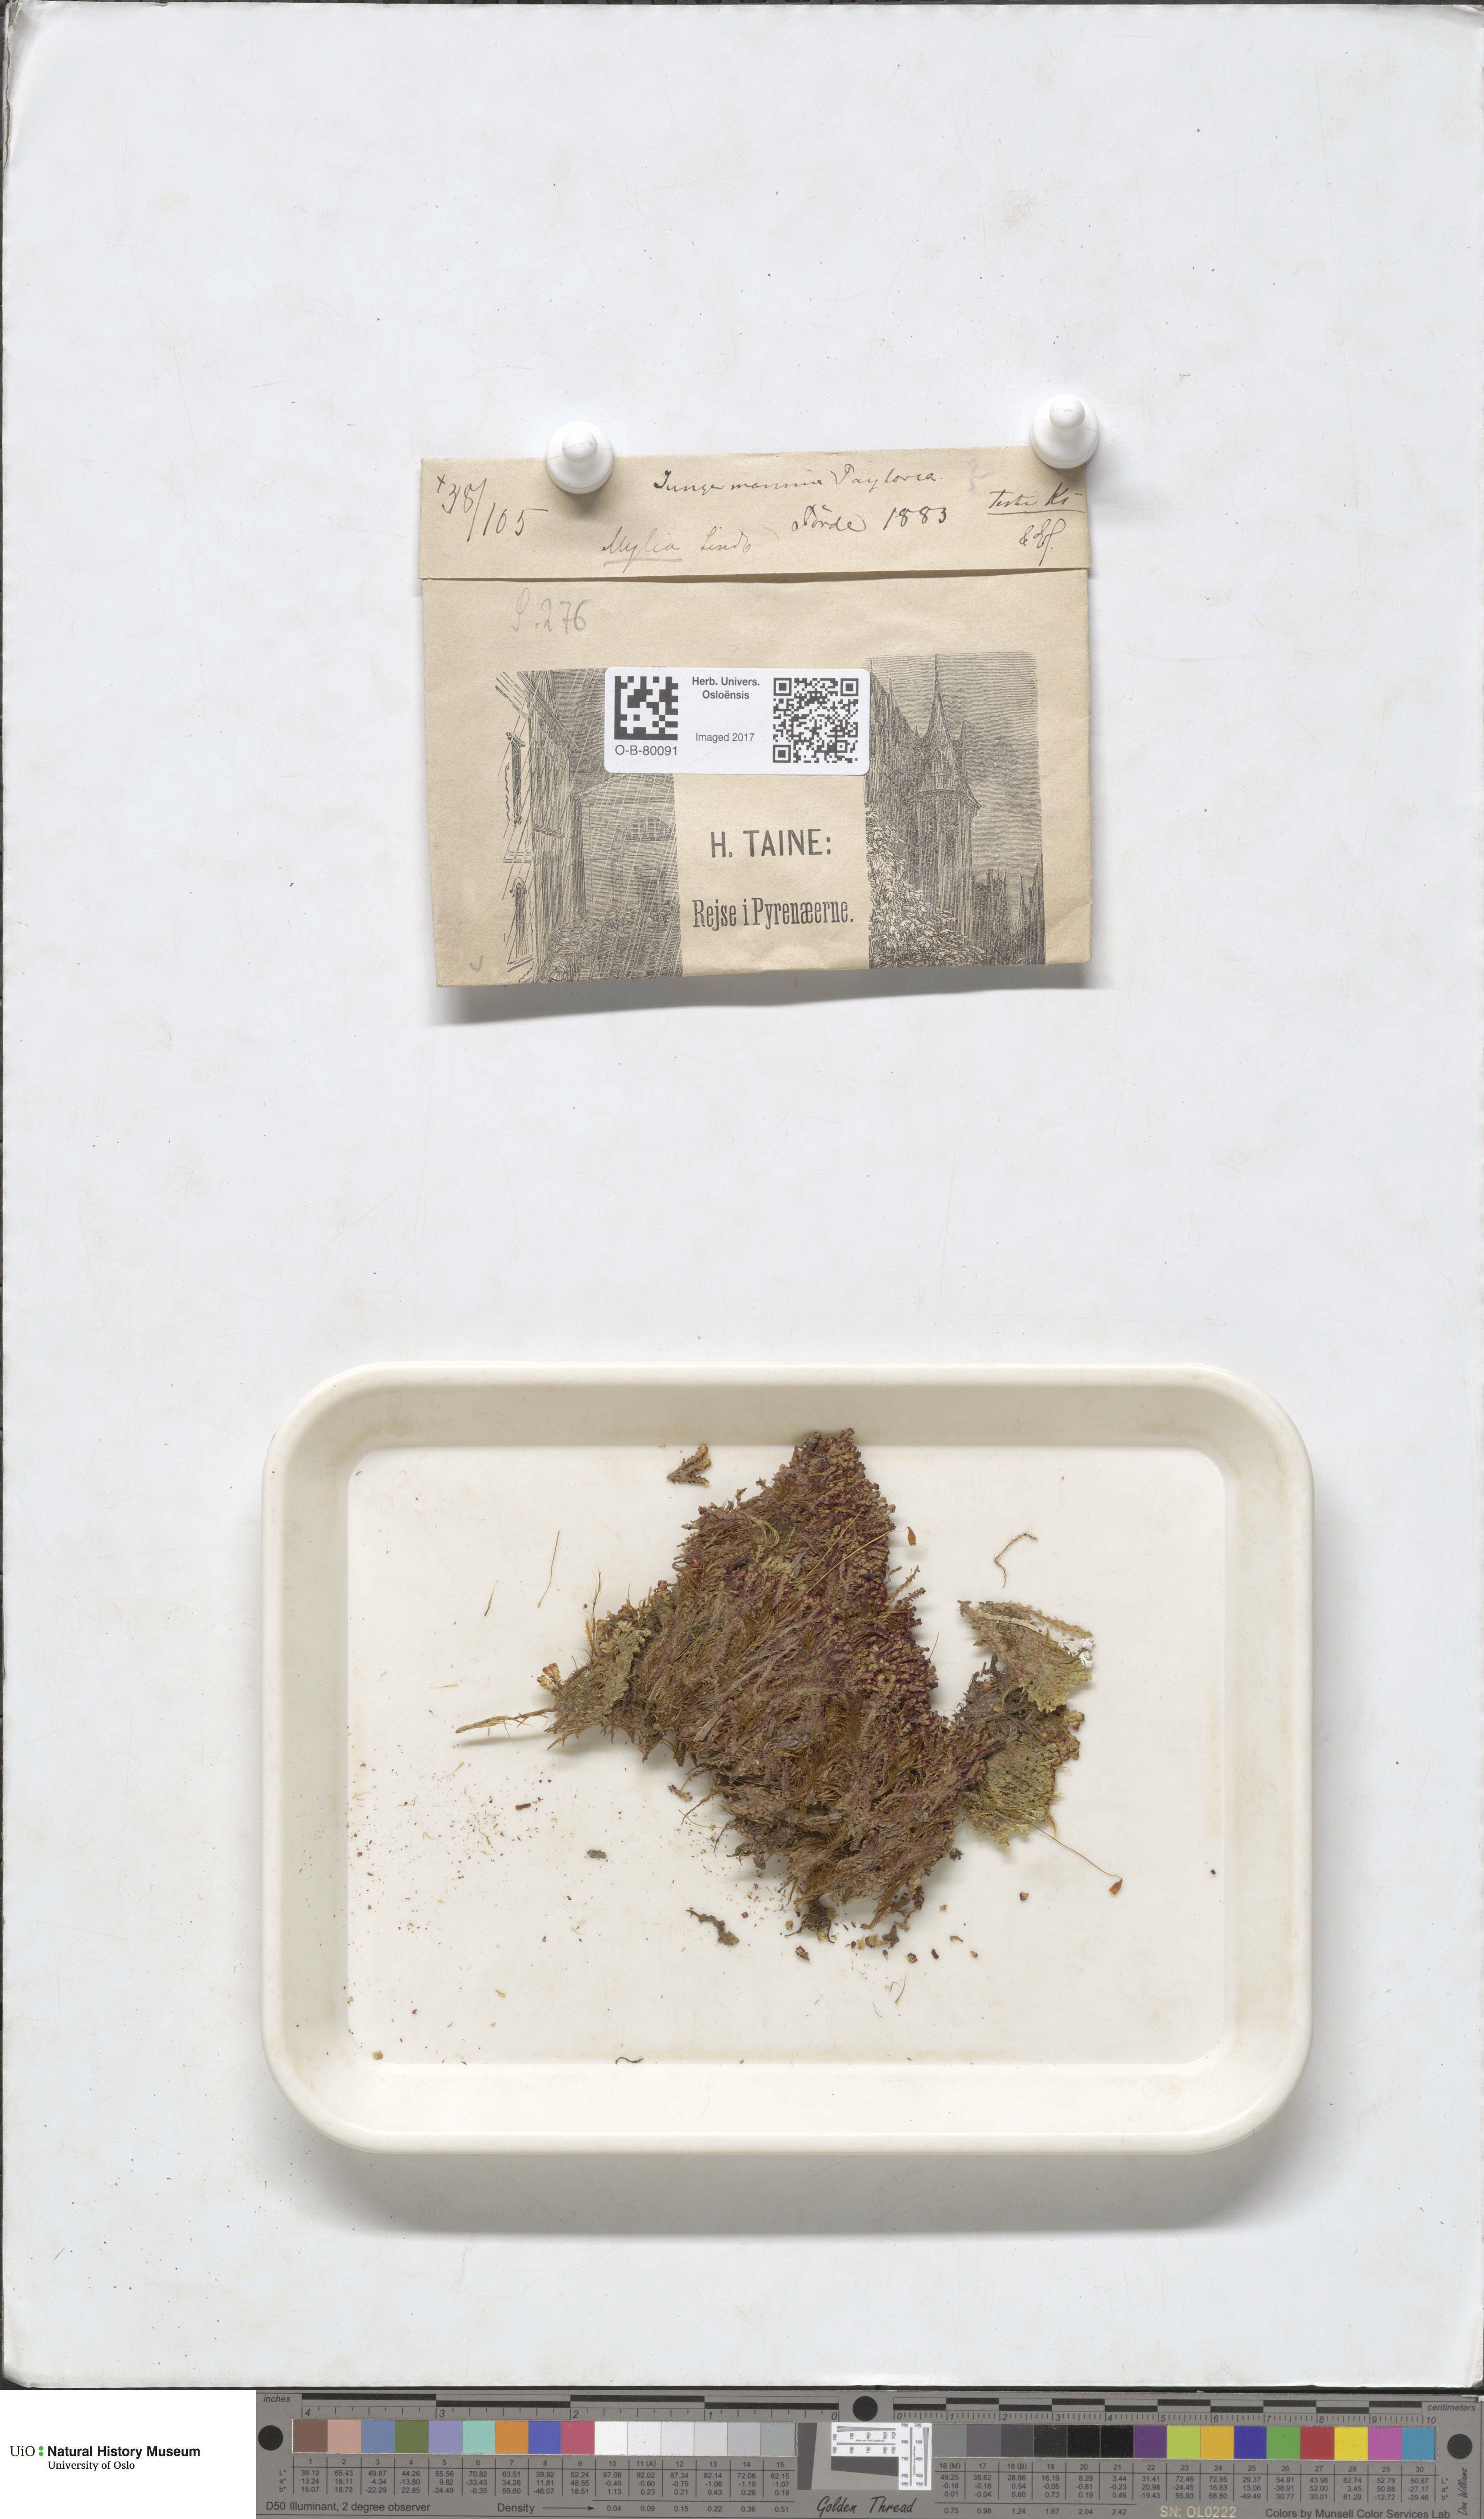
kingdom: Plantae
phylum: Marchantiophyta
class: Jungermanniopsida
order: Jungermanniales
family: Myliaceae
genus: Mylia
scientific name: Mylia taylorii
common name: Taylor s flapwort
